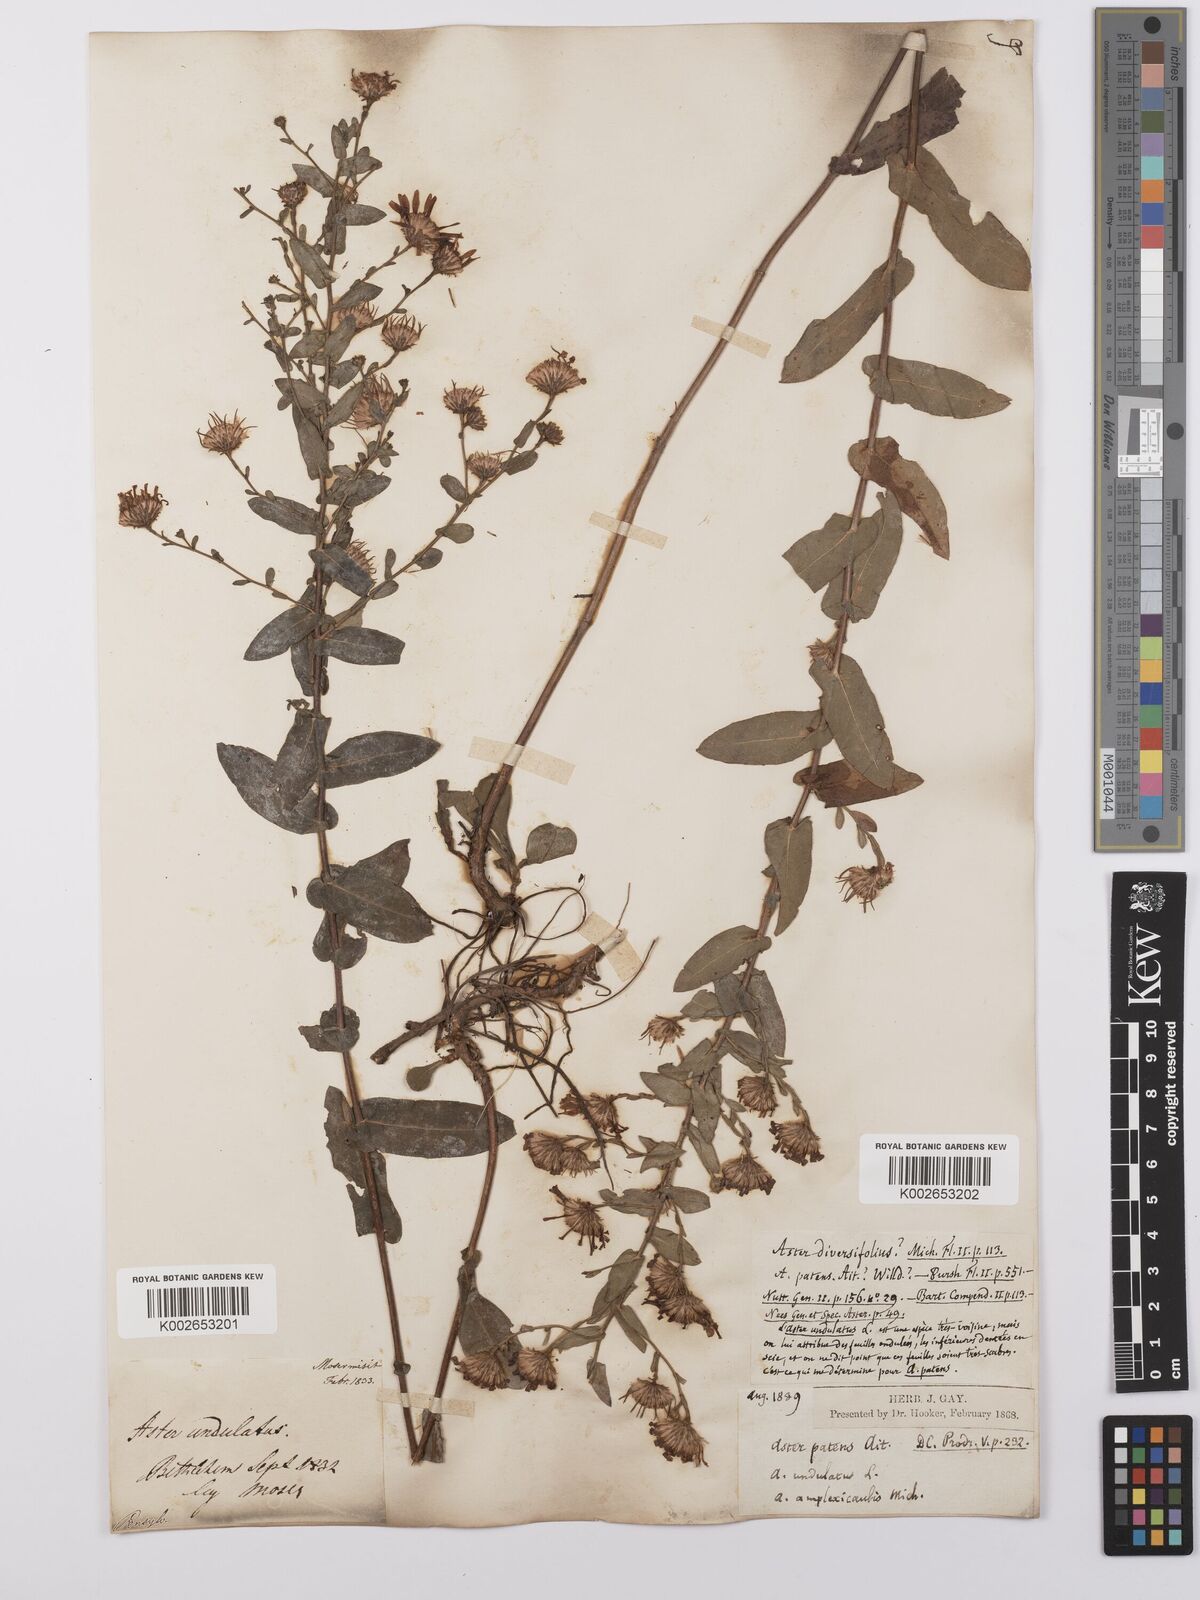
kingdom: Plantae
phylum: Tracheophyta
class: Magnoliopsida
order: Asterales
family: Asteraceae
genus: Symphyotrichum
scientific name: Symphyotrichum patens
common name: Late purple aster
